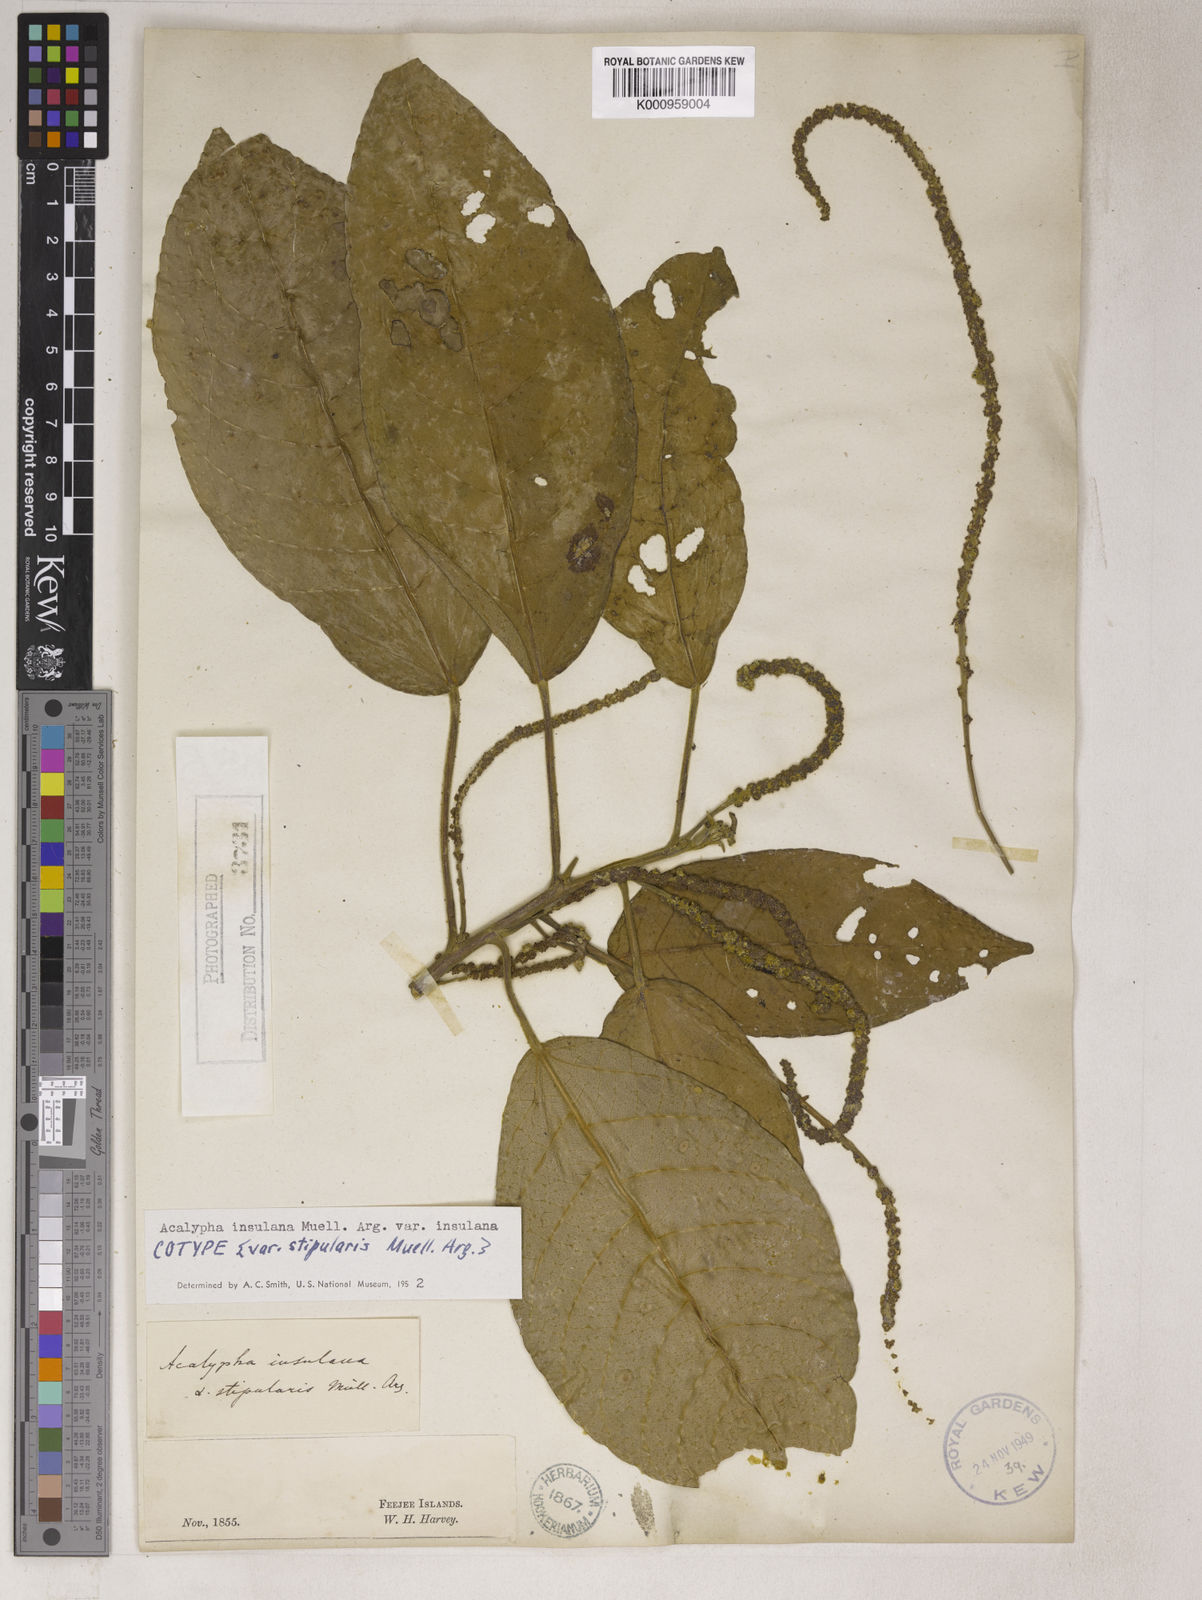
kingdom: Plantae
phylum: Tracheophyta
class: Magnoliopsida
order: Malpighiales
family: Euphorbiaceae
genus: Acalypha
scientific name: Acalypha
